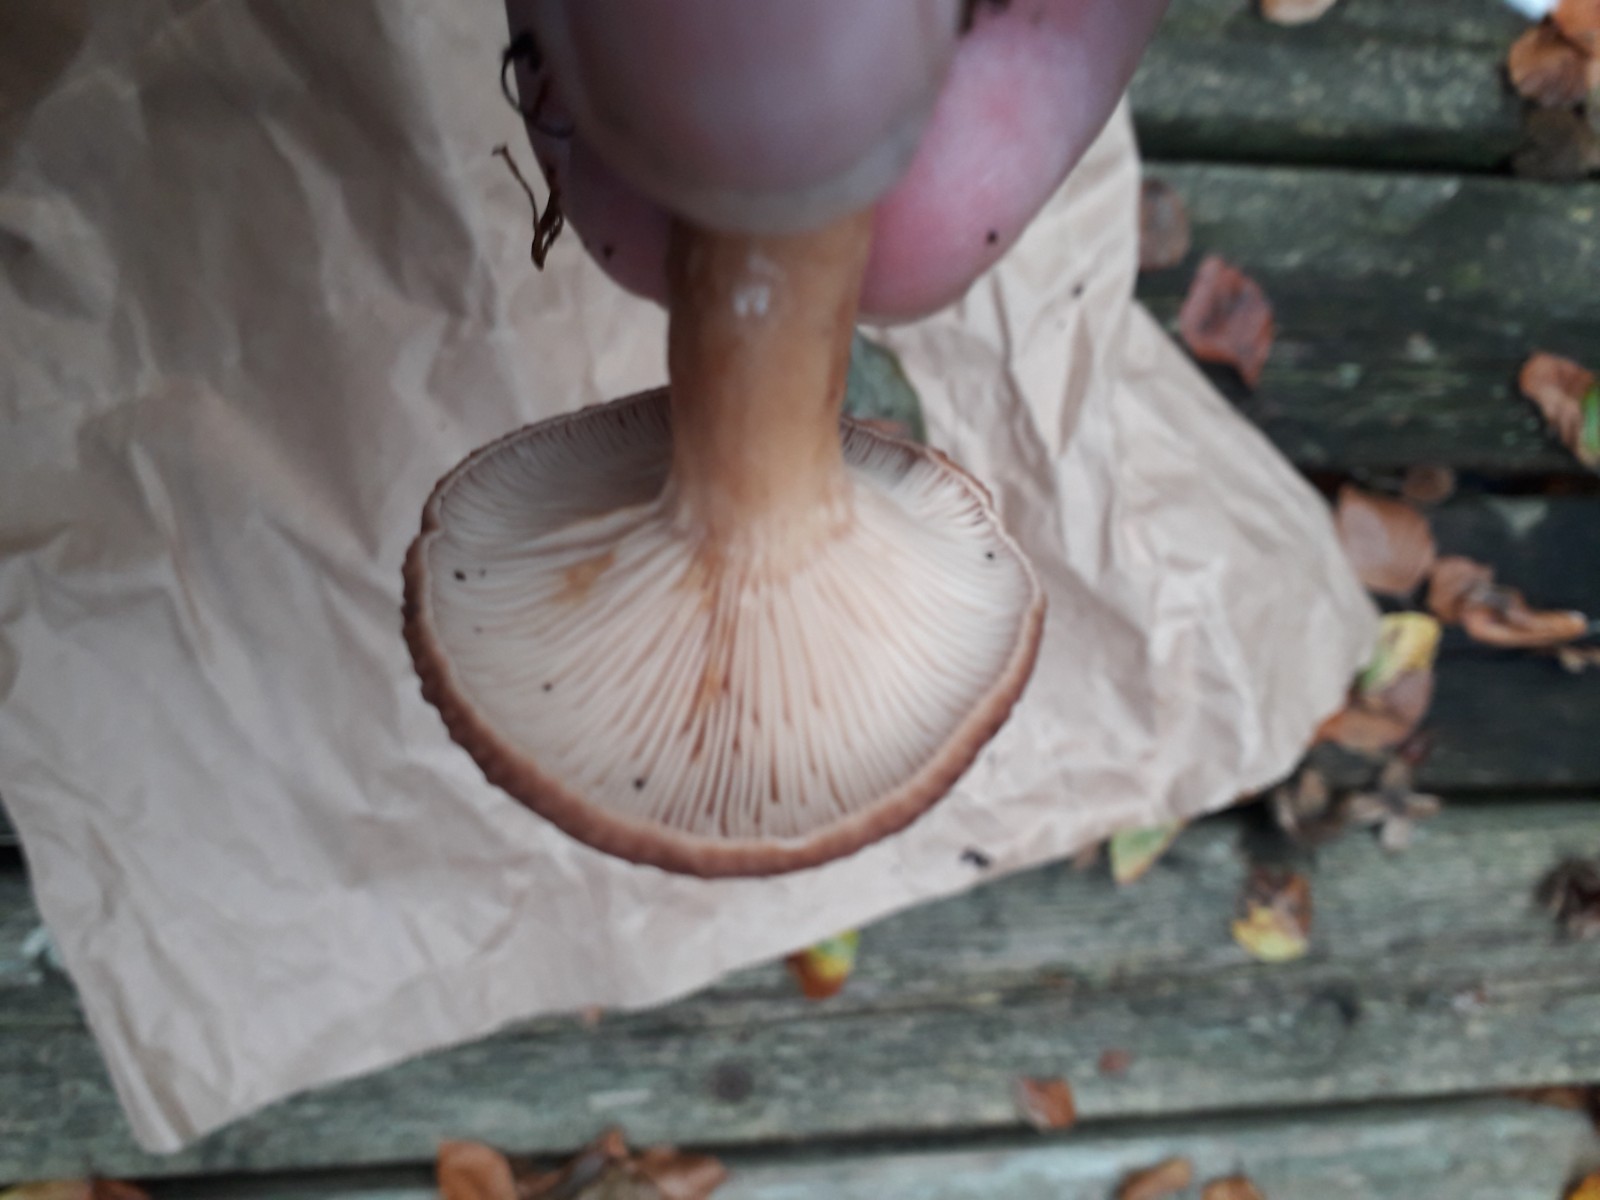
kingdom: Fungi
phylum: Basidiomycota
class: Agaricomycetes
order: Russulales
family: Russulaceae
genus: Lactarius
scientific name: Lactarius subdulcis
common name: sødlig mælkehat
